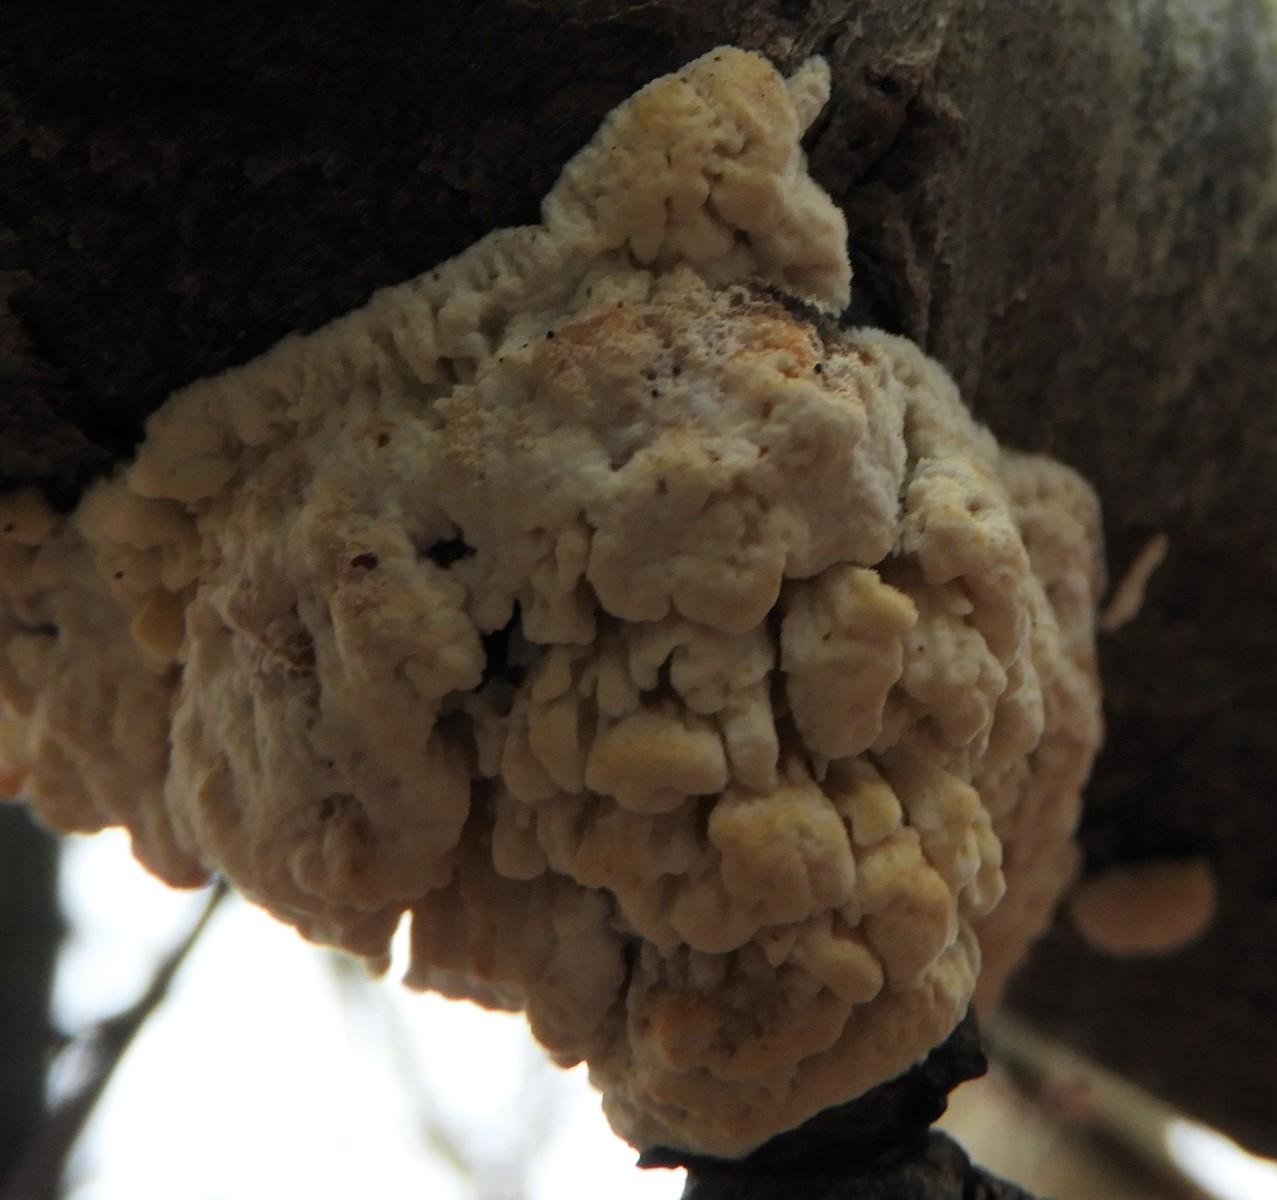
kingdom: Fungi
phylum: Basidiomycota
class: Agaricomycetes
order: Hymenochaetales
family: Schizoporaceae
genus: Xylodon
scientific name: Xylodon radula
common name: grovtandet kalkskind
